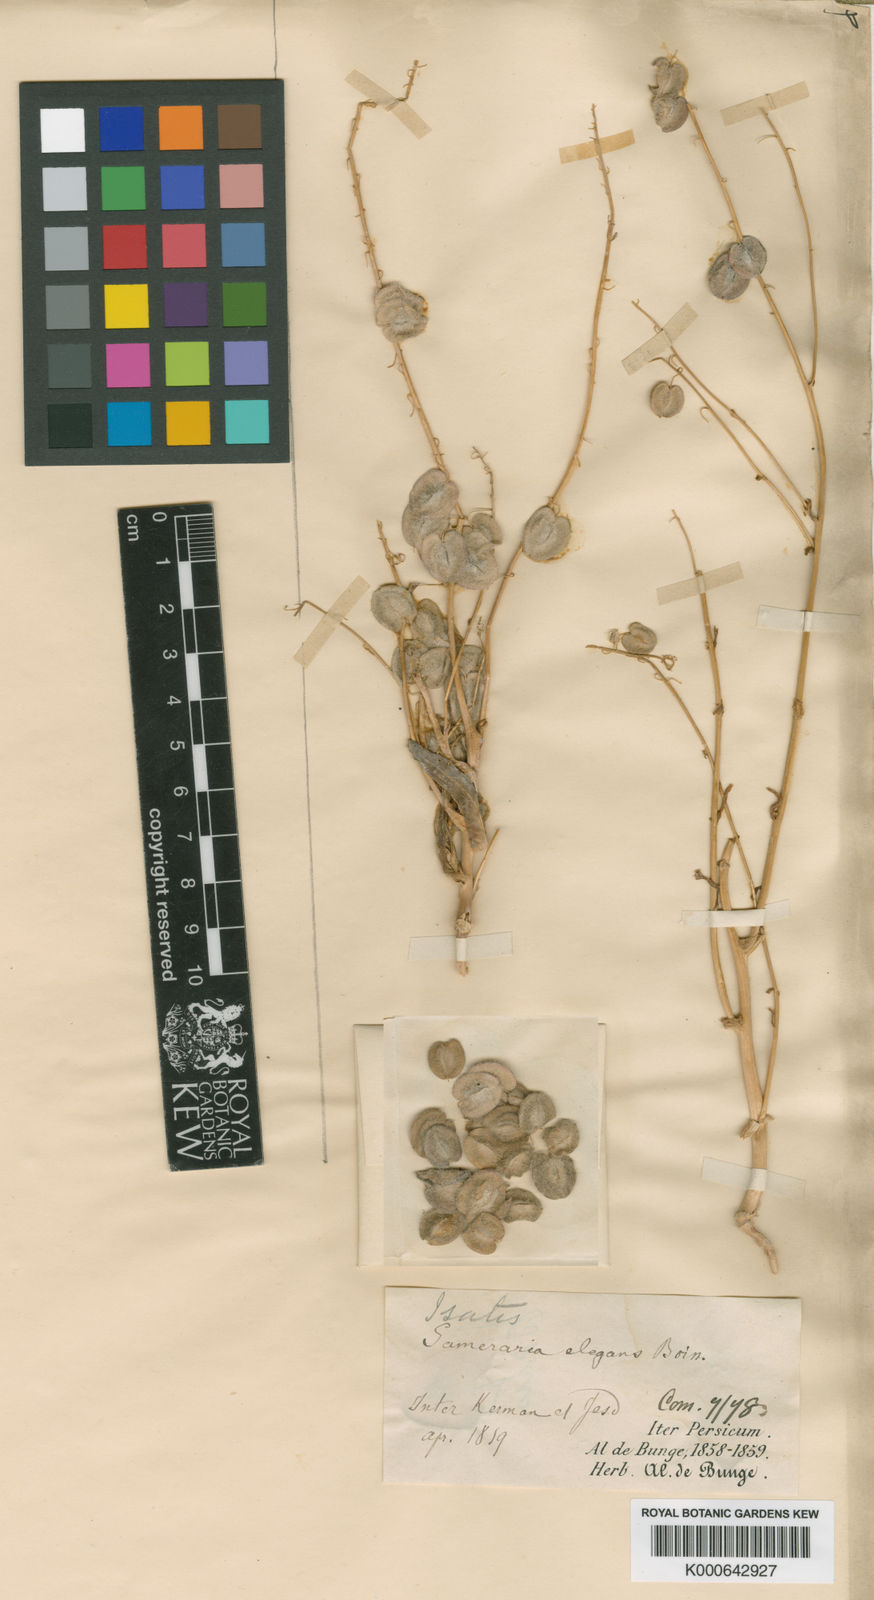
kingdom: Plantae
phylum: Tracheophyta
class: Magnoliopsida
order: Brassicales
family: Brassicaceae
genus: Isatis
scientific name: Isatis elegans
